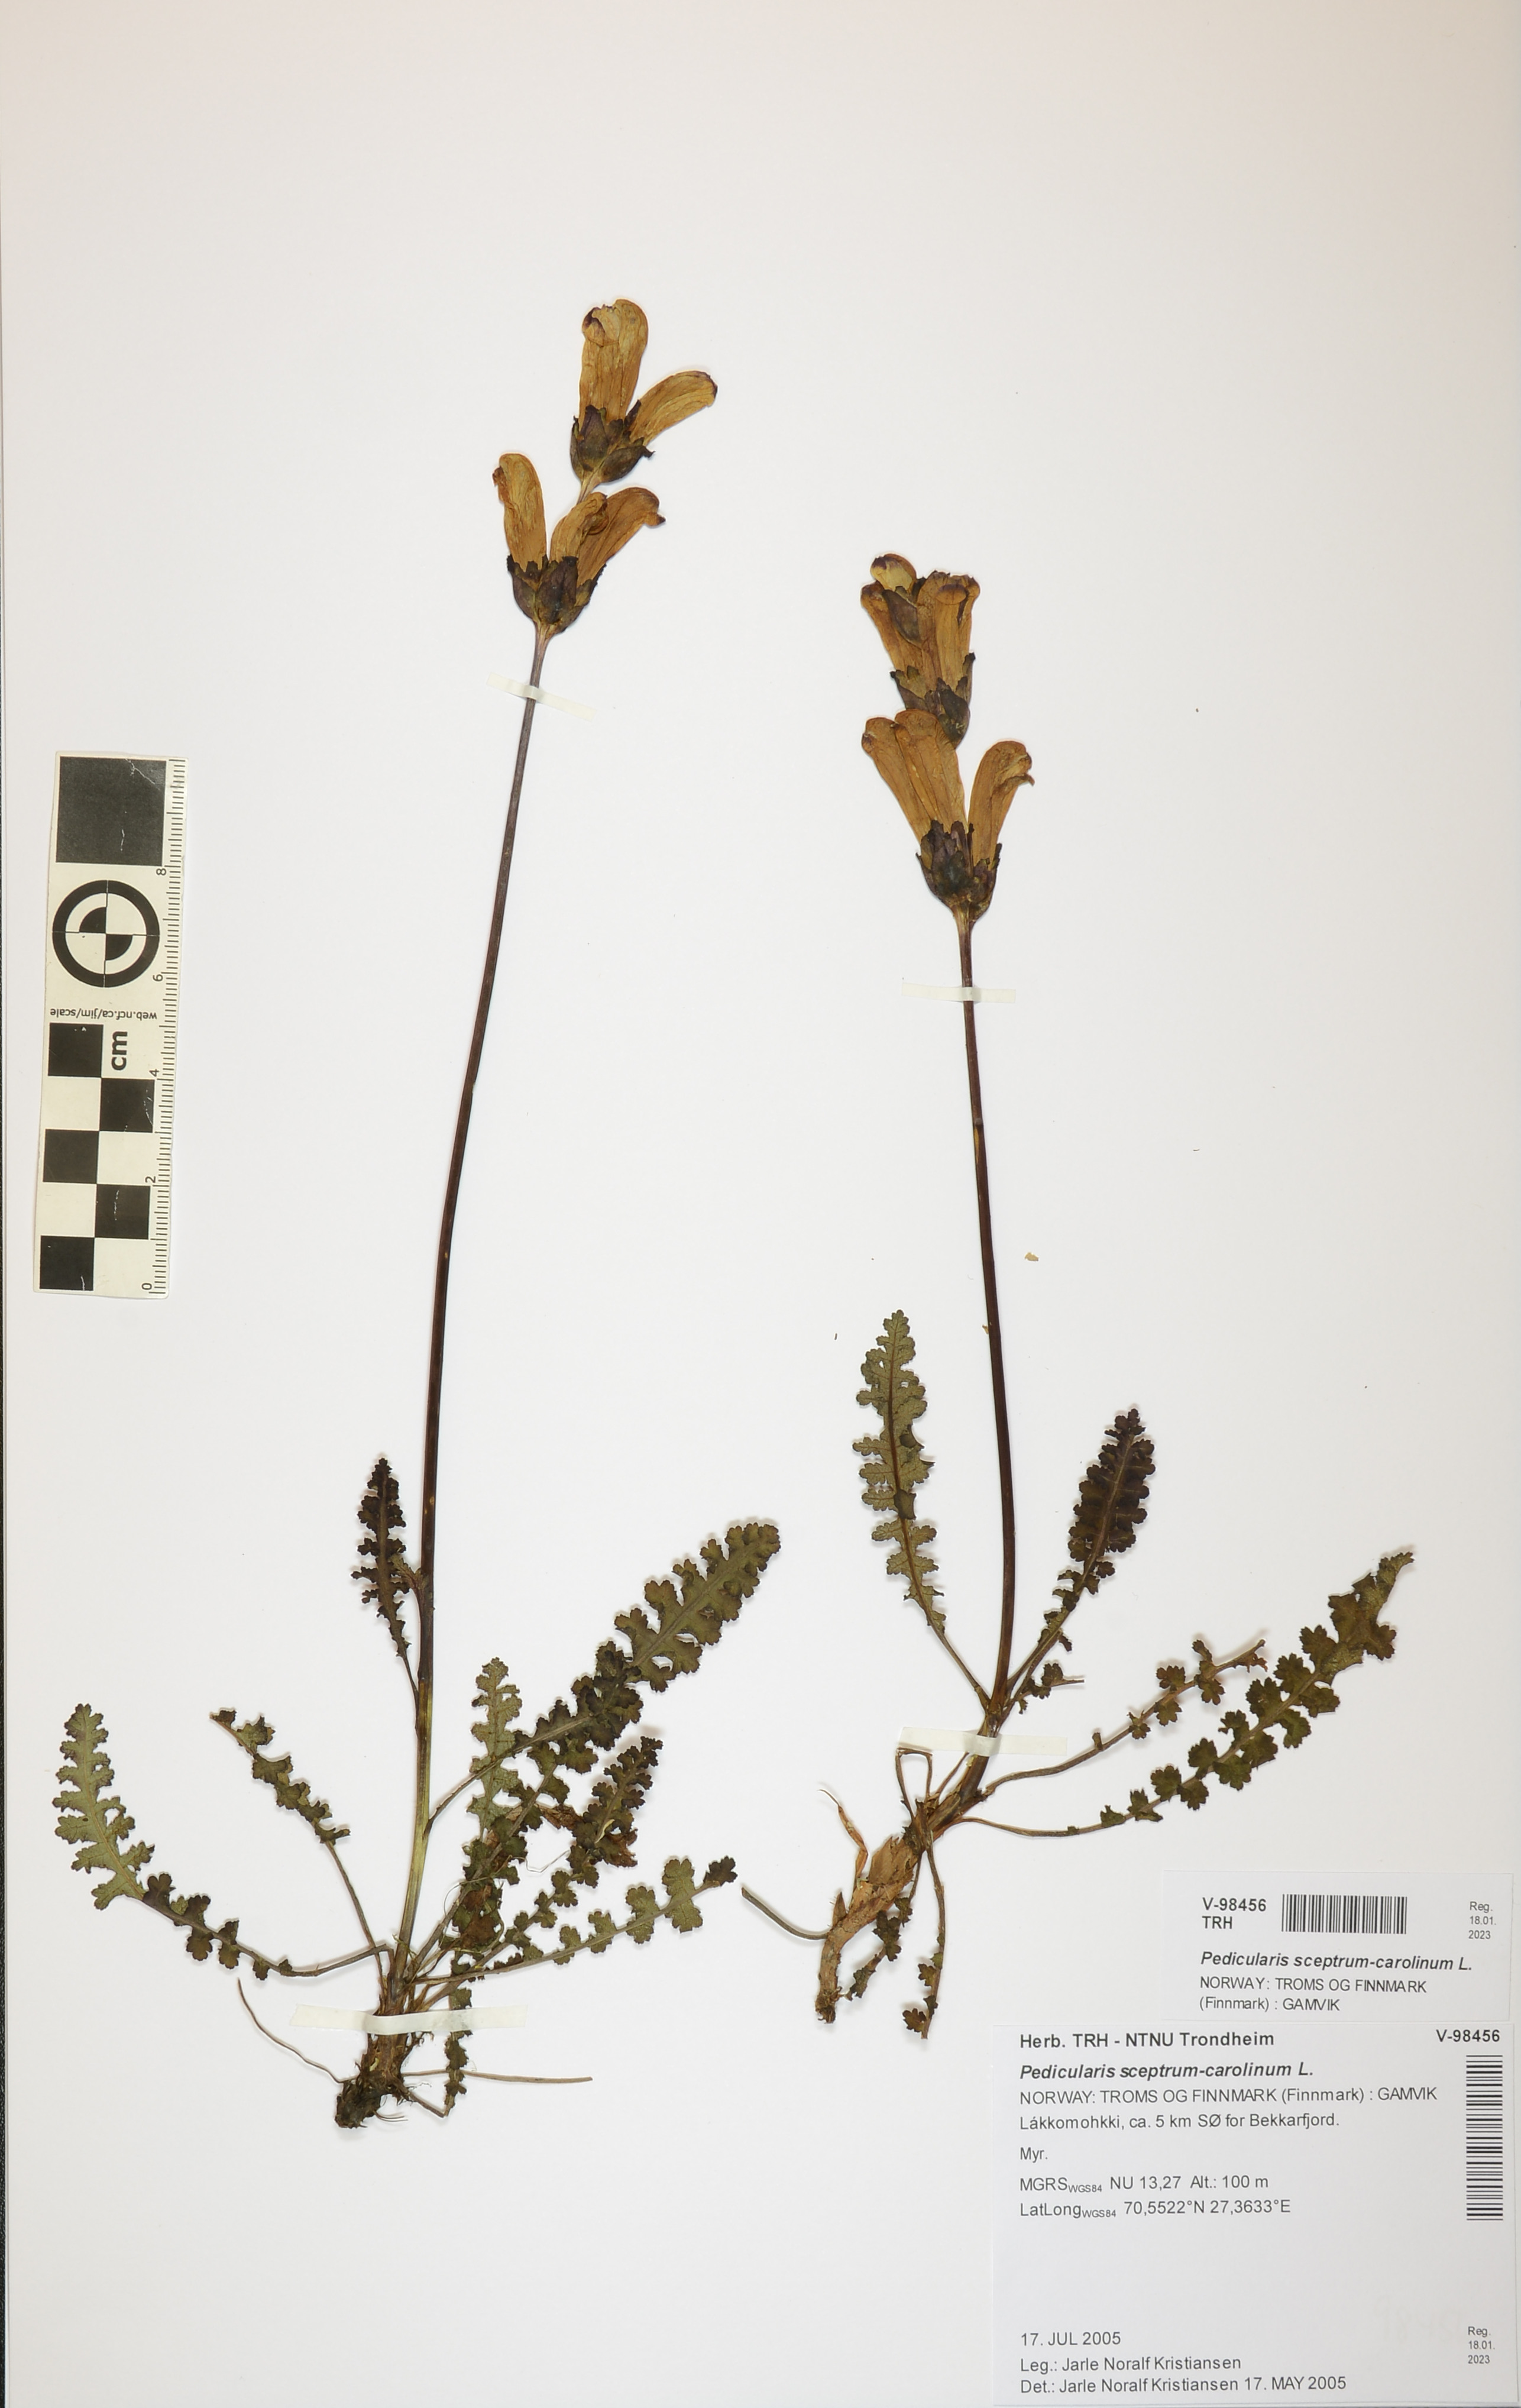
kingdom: Plantae
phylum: Tracheophyta
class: Magnoliopsida
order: Lamiales
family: Orobanchaceae
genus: Pedicularis
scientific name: Pedicularis sceptrum-carolinum
